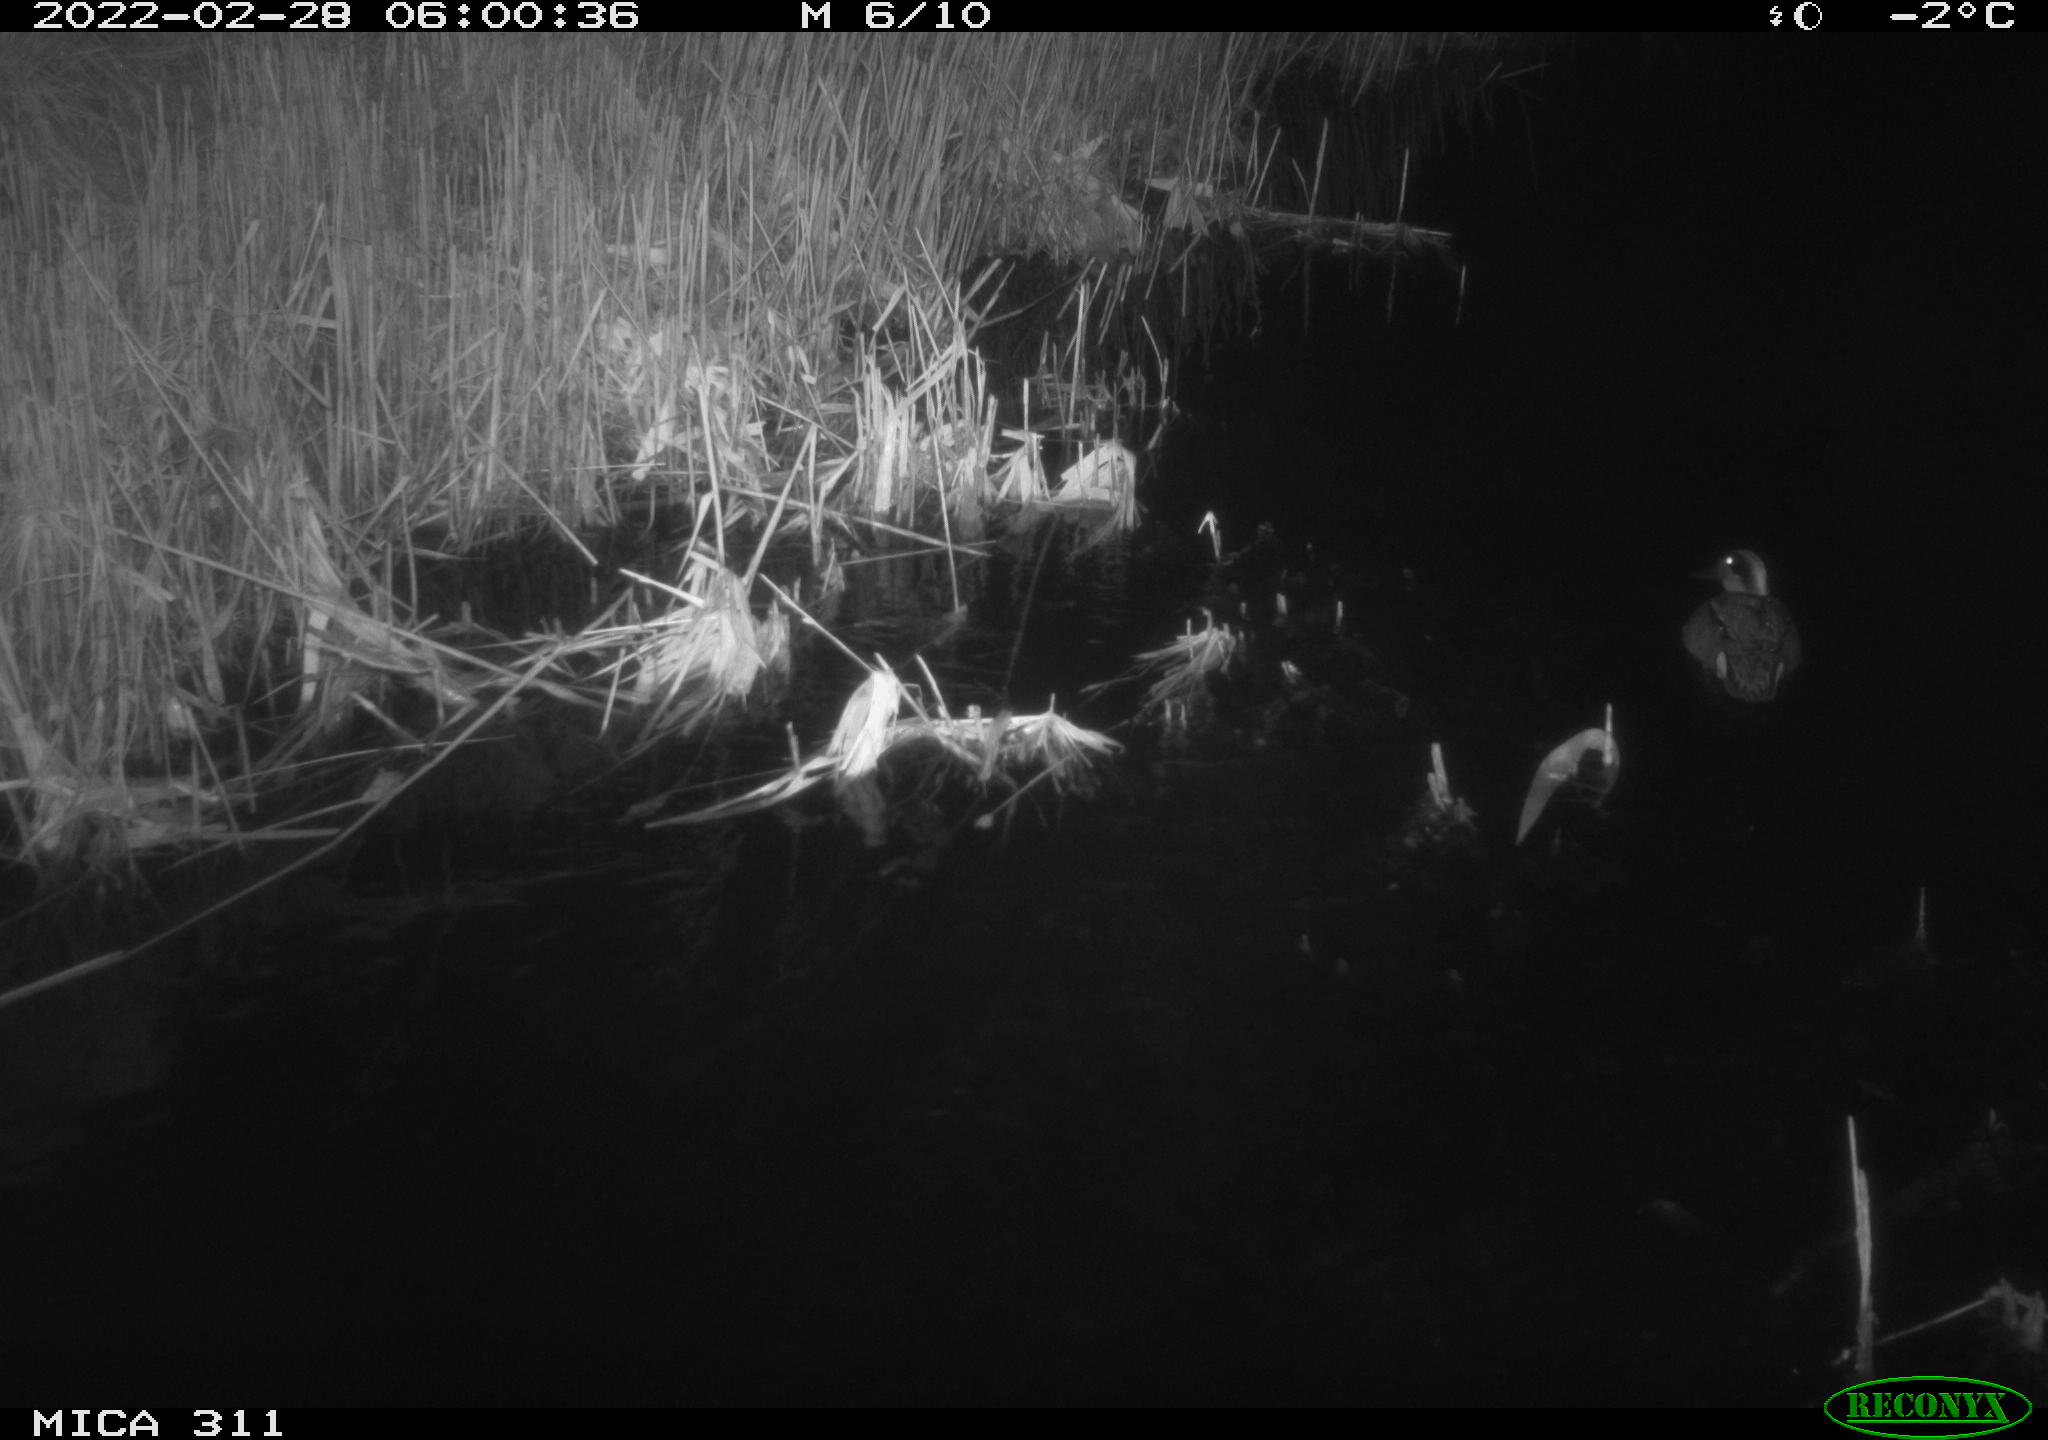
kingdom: Animalia
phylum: Chordata
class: Aves
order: Anseriformes
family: Anatidae
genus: Anas
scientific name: Anas crecca
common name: Eurasian teal
